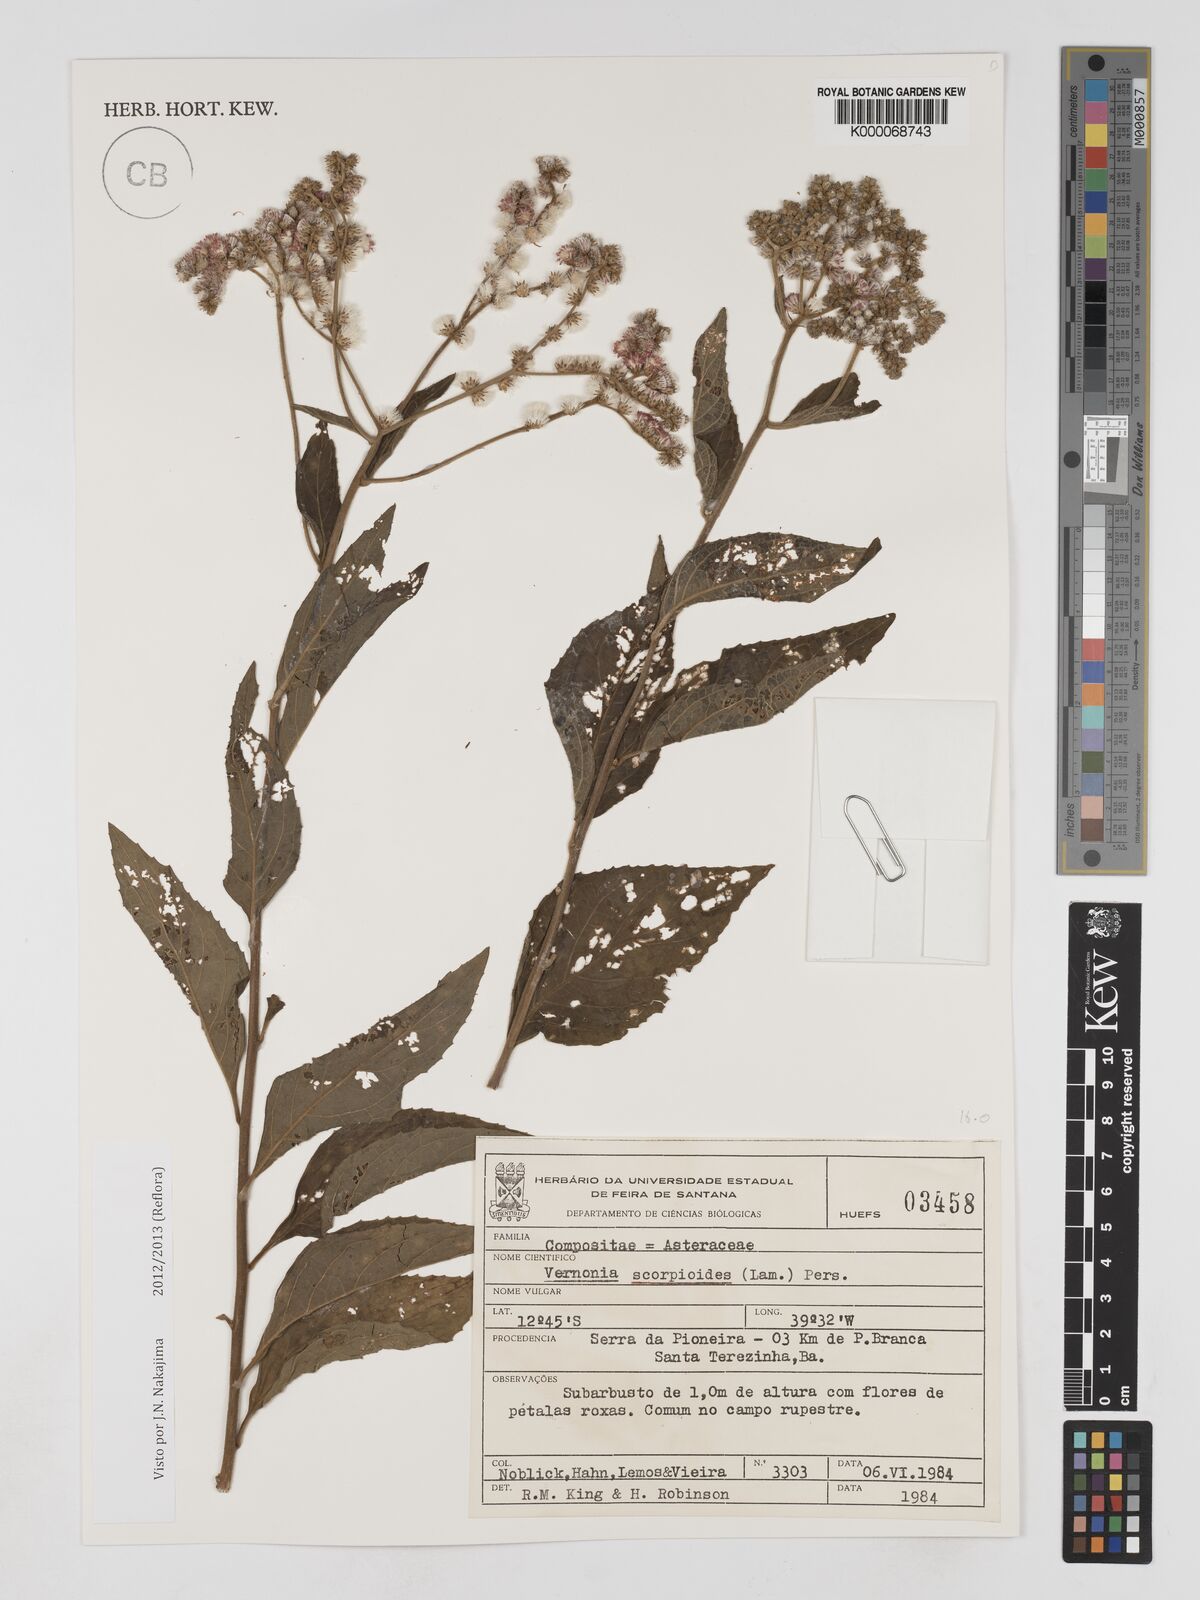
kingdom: Plantae
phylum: Tracheophyta
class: Magnoliopsida
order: Asterales
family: Asteraceae
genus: Cyrtocymura
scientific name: Cyrtocymura scorpioides
